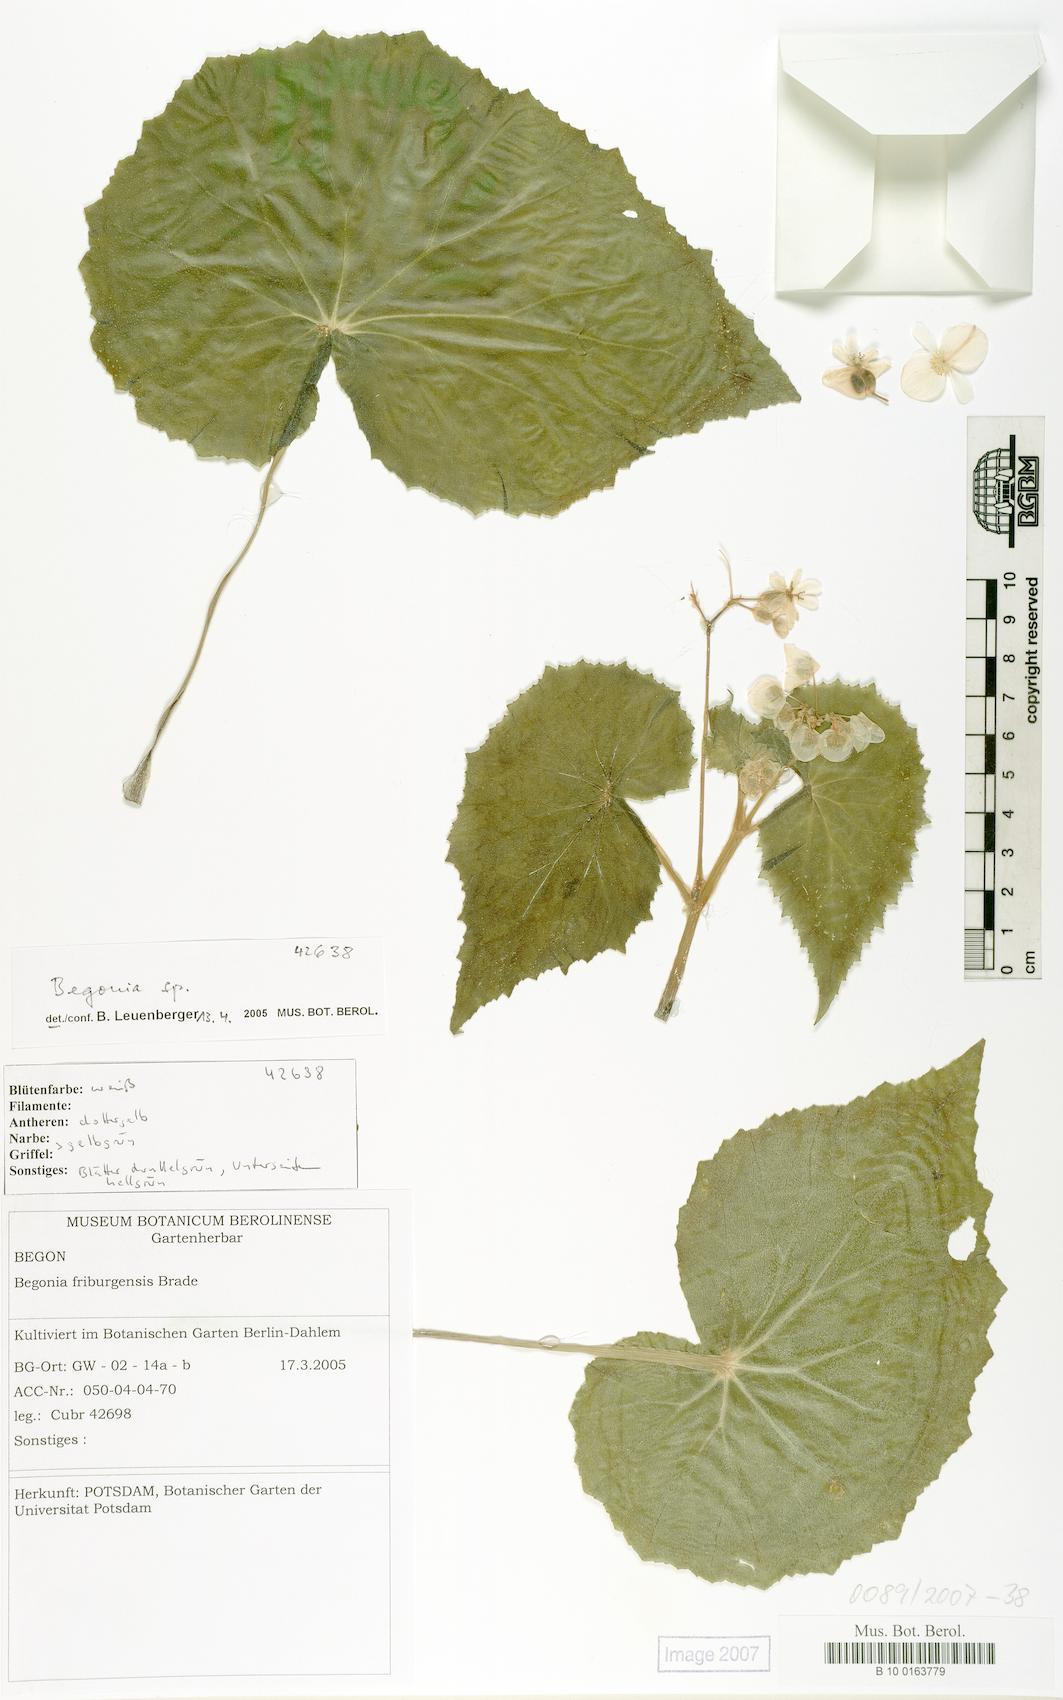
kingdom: Plantae
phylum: Tracheophyta
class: Magnoliopsida
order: Cucurbitales
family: Begoniaceae
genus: Begonia
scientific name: Begonia
